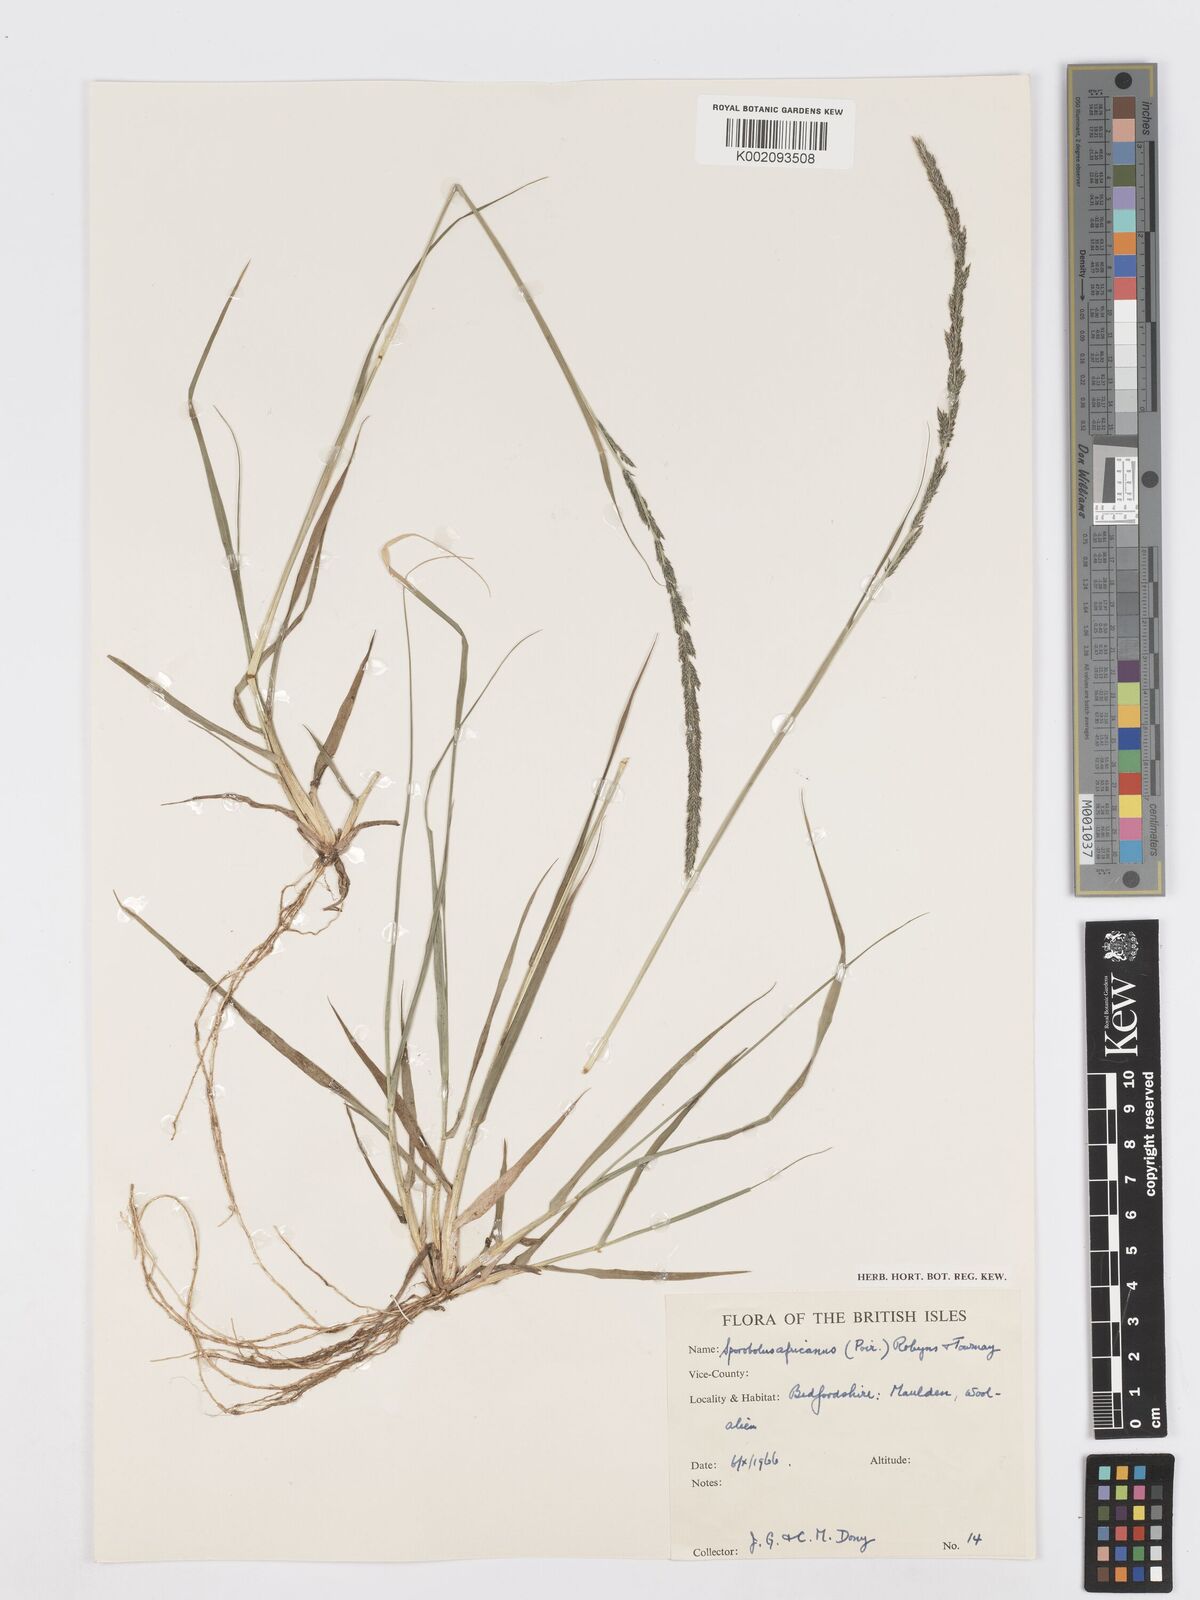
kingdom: Plantae
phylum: Tracheophyta
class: Liliopsida
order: Poales
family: Poaceae
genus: Sporobolus
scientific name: Sporobolus africanus
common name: African dropseed
